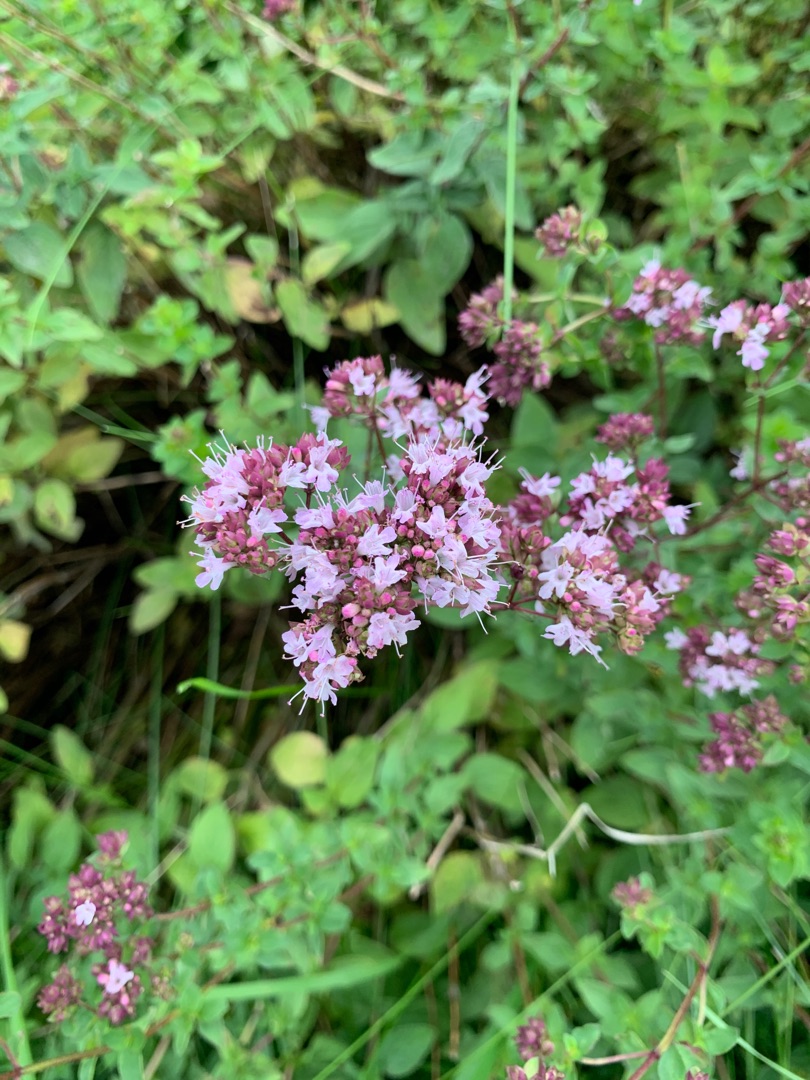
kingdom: Plantae
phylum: Tracheophyta
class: Magnoliopsida
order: Lamiales
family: Lamiaceae
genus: Origanum
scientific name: Origanum vulgare
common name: Merian
